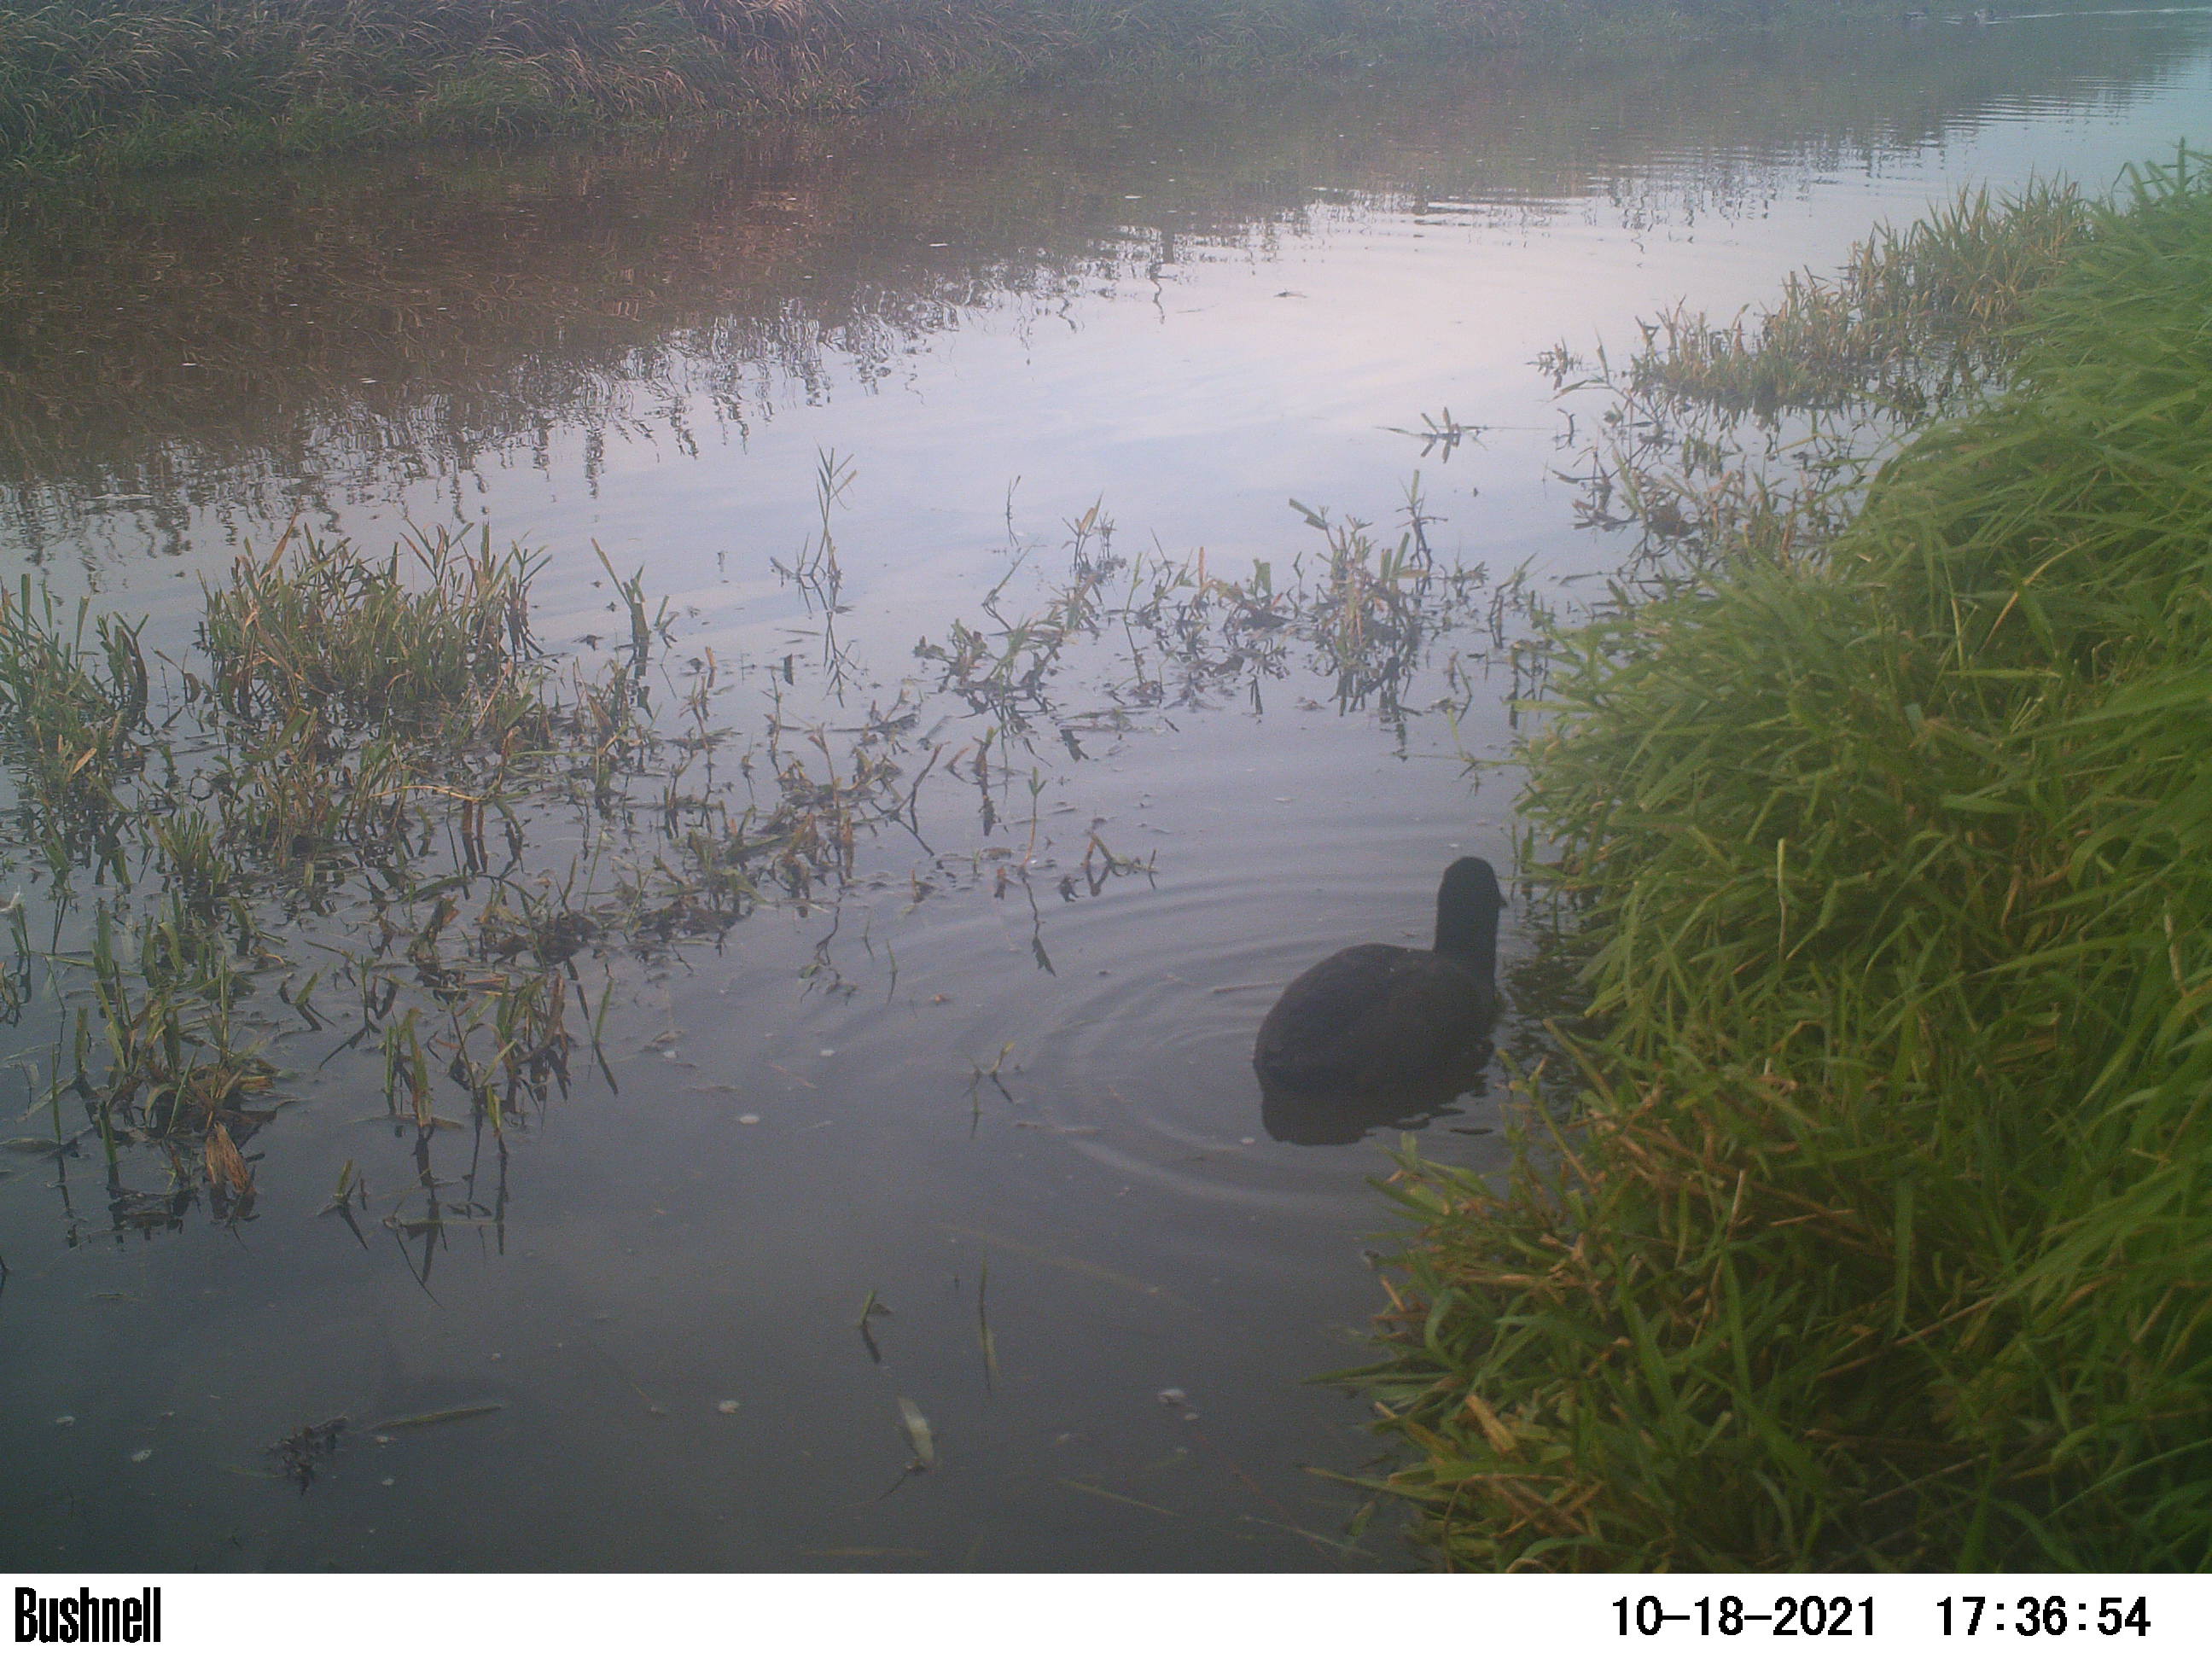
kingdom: Animalia
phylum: Chordata
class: Aves
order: Anseriformes
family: Anatidae
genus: Anas
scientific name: Anas
